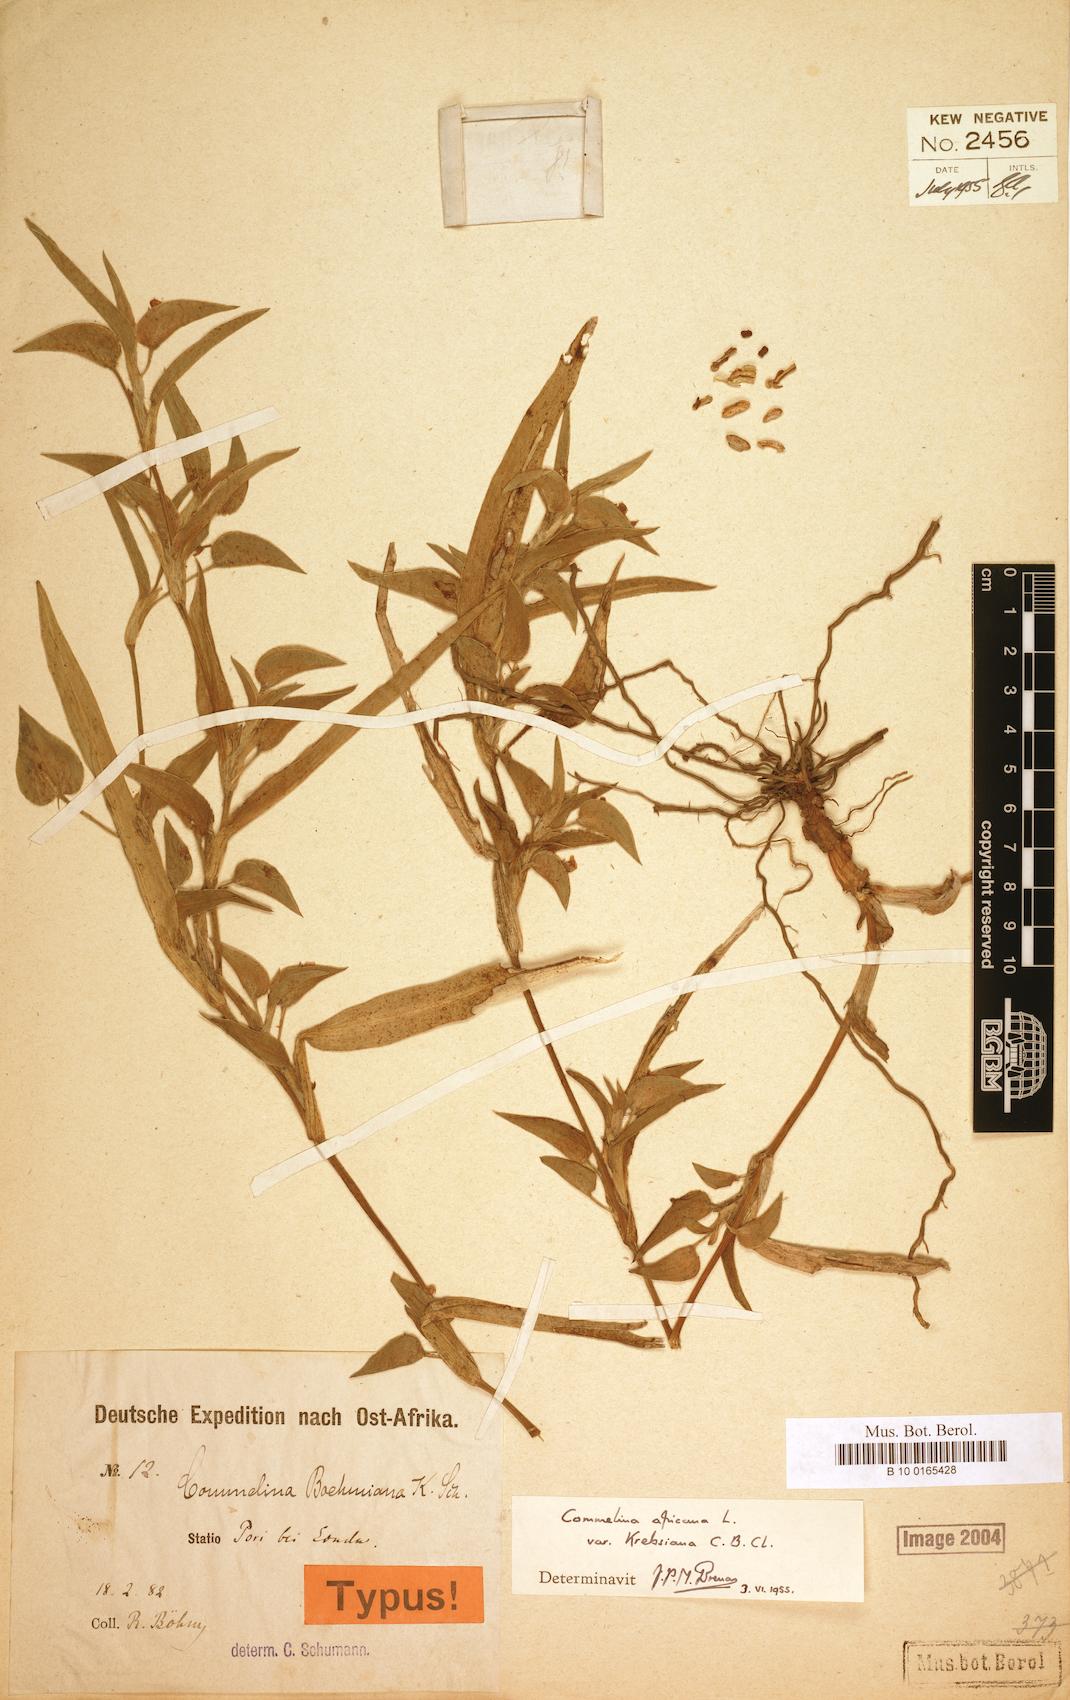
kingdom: Plantae
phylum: Tracheophyta
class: Liliopsida
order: Commelinales
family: Commelinaceae
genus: Commelina
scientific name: Commelina africana
